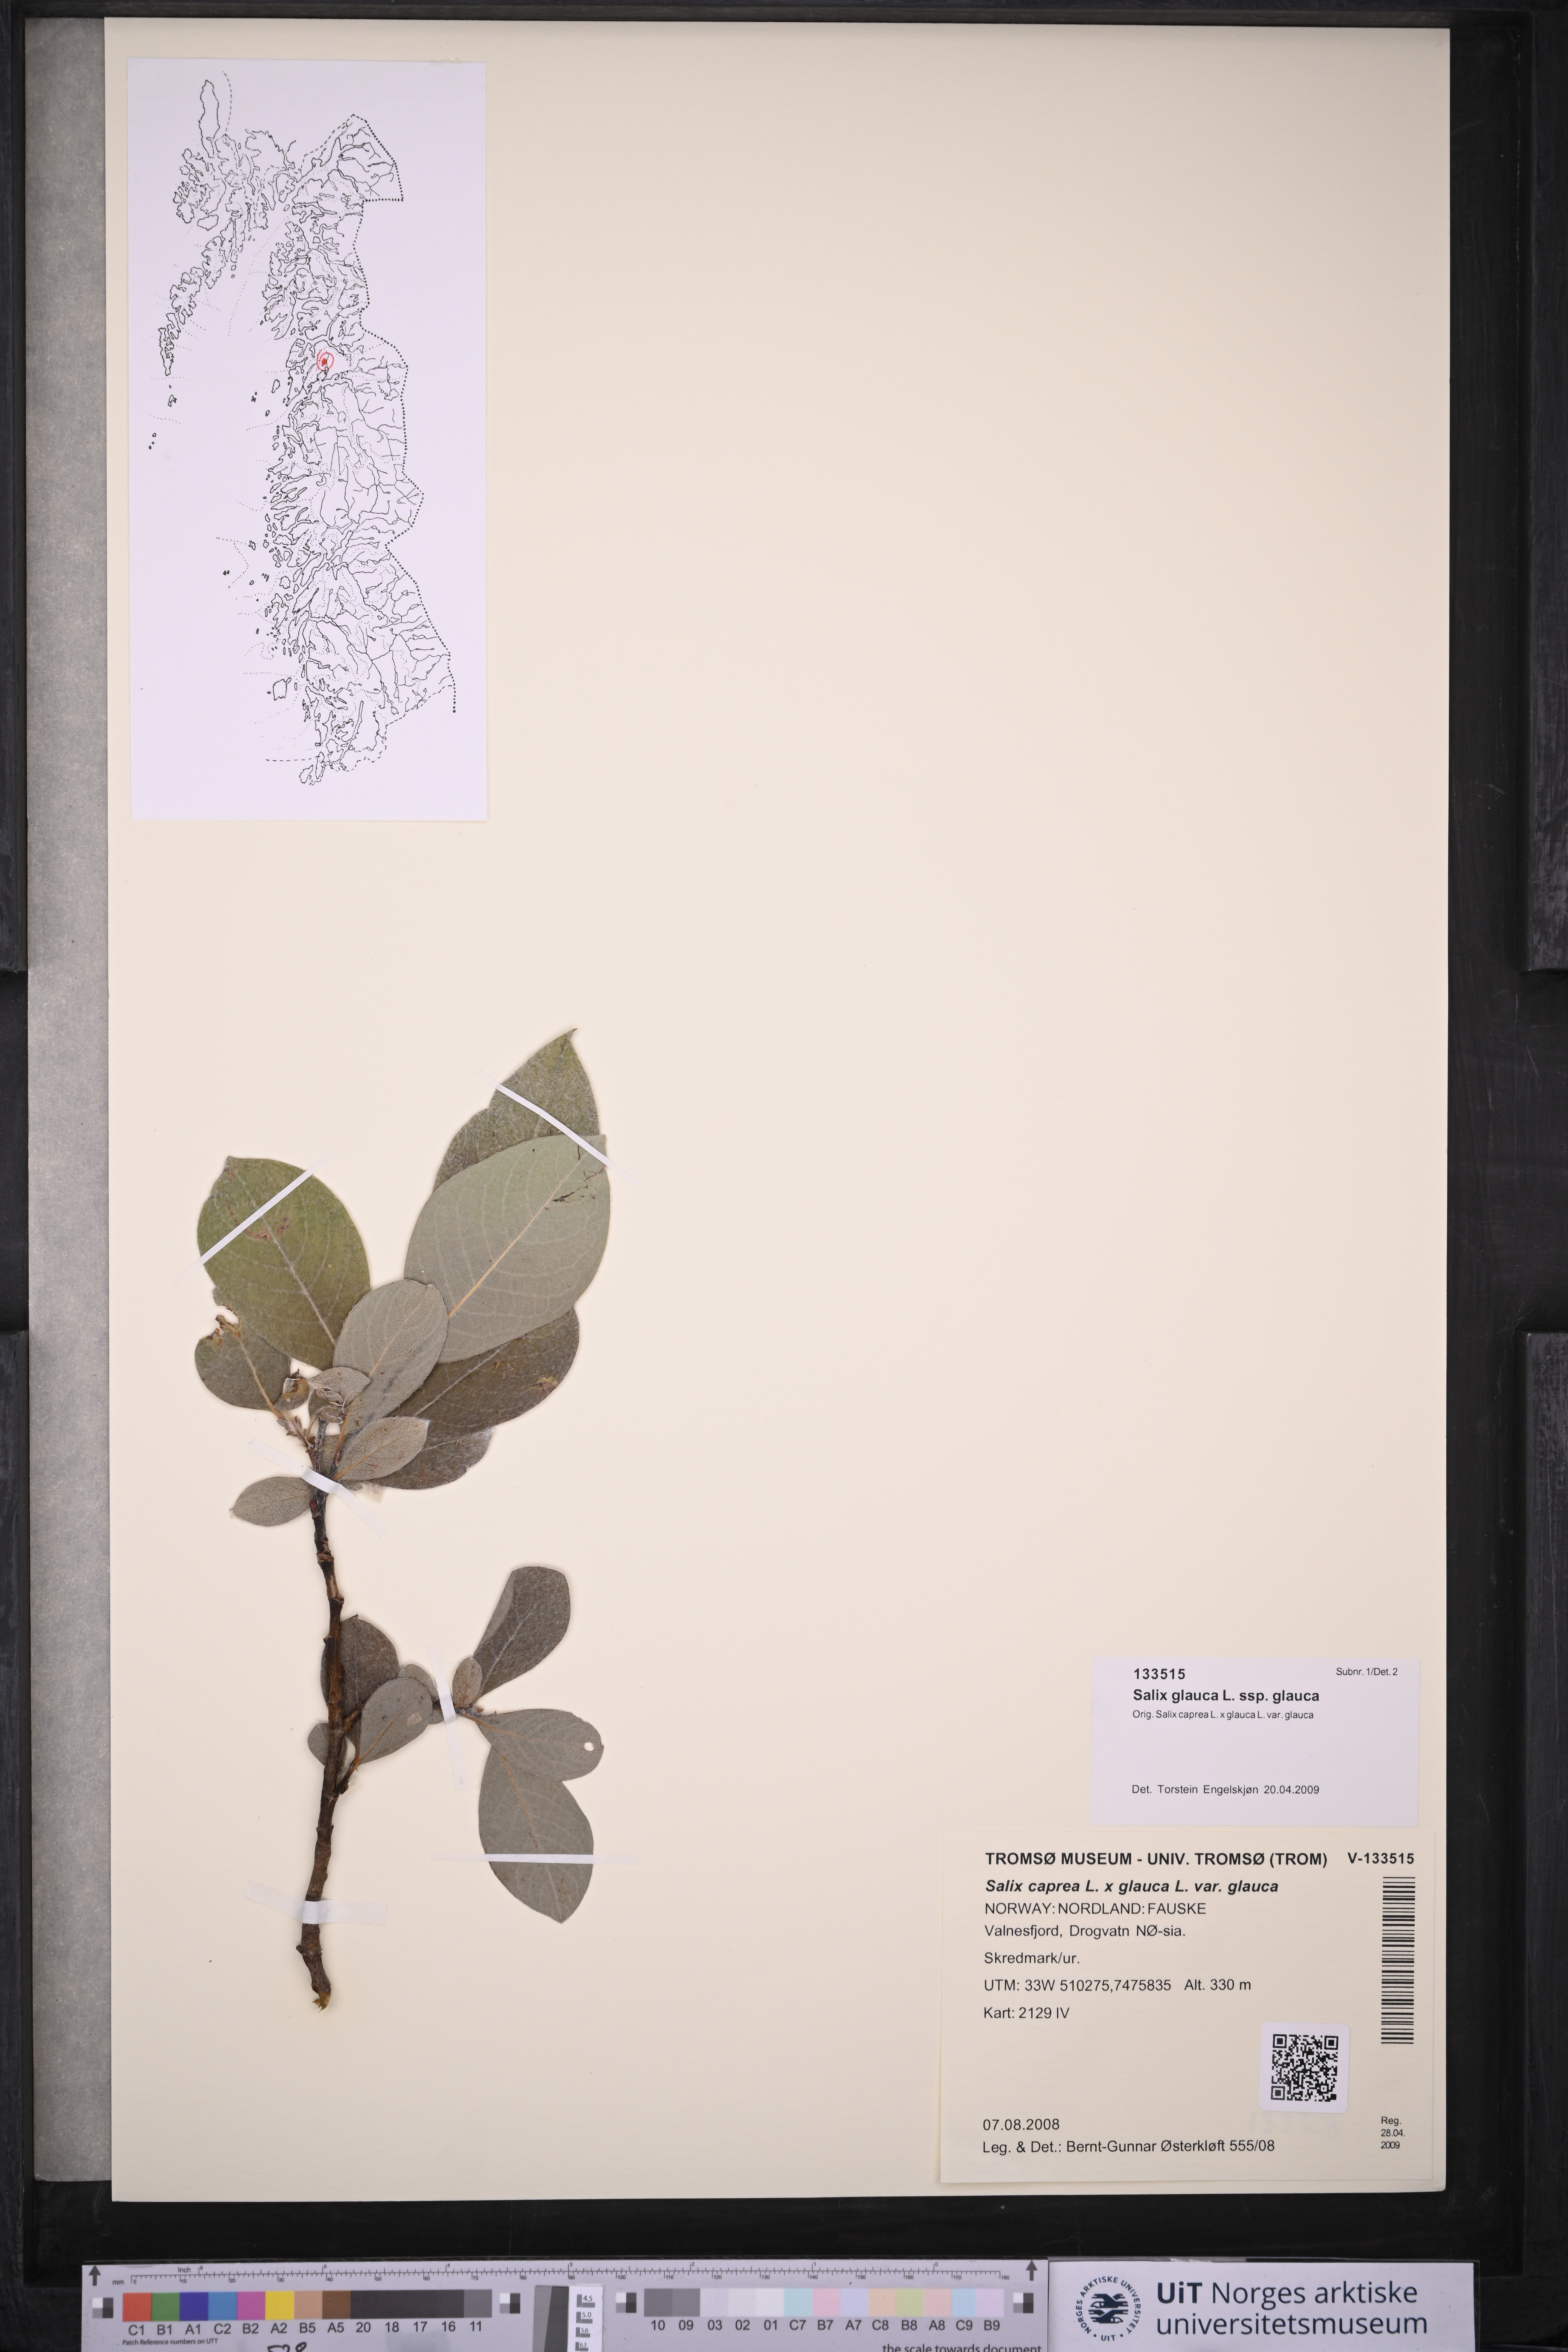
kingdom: Plantae
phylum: Tracheophyta
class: Magnoliopsida
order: Malpighiales
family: Salicaceae
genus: Salix
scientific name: Salix glauca
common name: Glaucous willow
